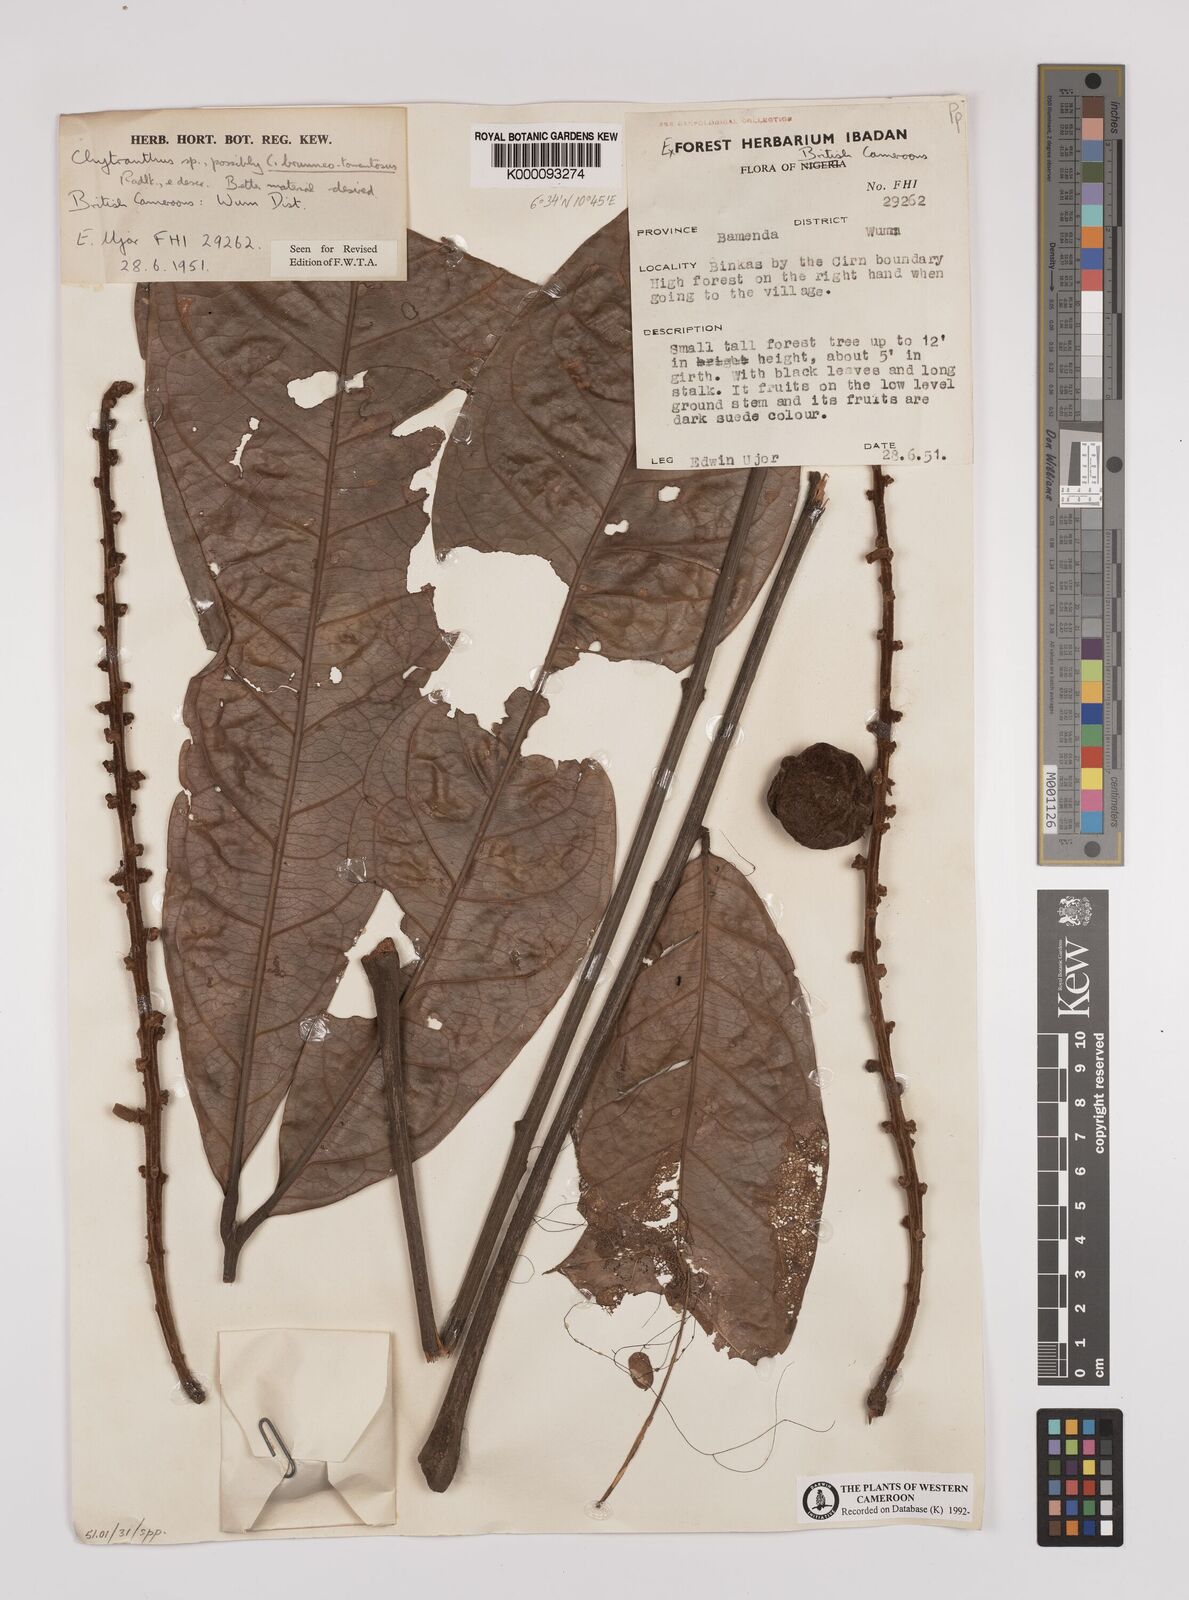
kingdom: Plantae
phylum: Tracheophyta
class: Magnoliopsida
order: Sapindales
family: Sapindaceae
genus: Chytranthus
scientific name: Chytranthus
